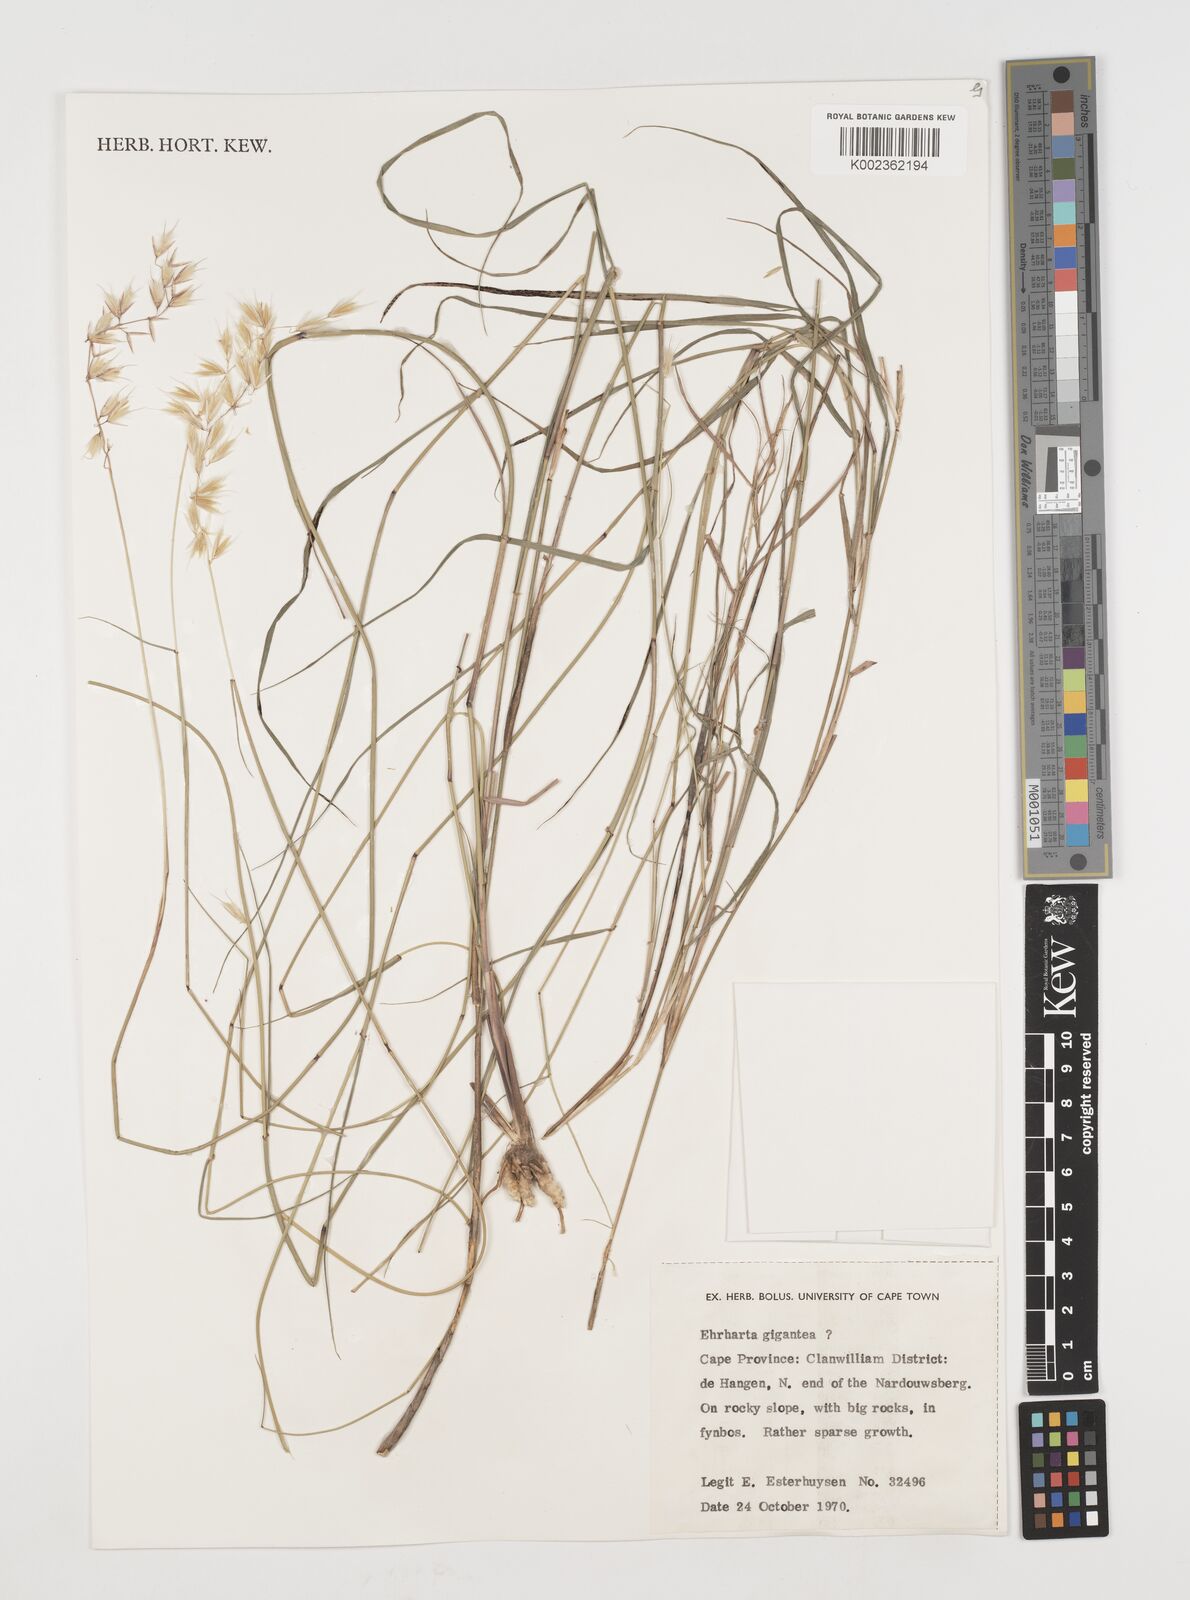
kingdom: Plantae
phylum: Tracheophyta
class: Liliopsida
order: Poales
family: Poaceae
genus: Ehrharta
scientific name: Ehrharta
